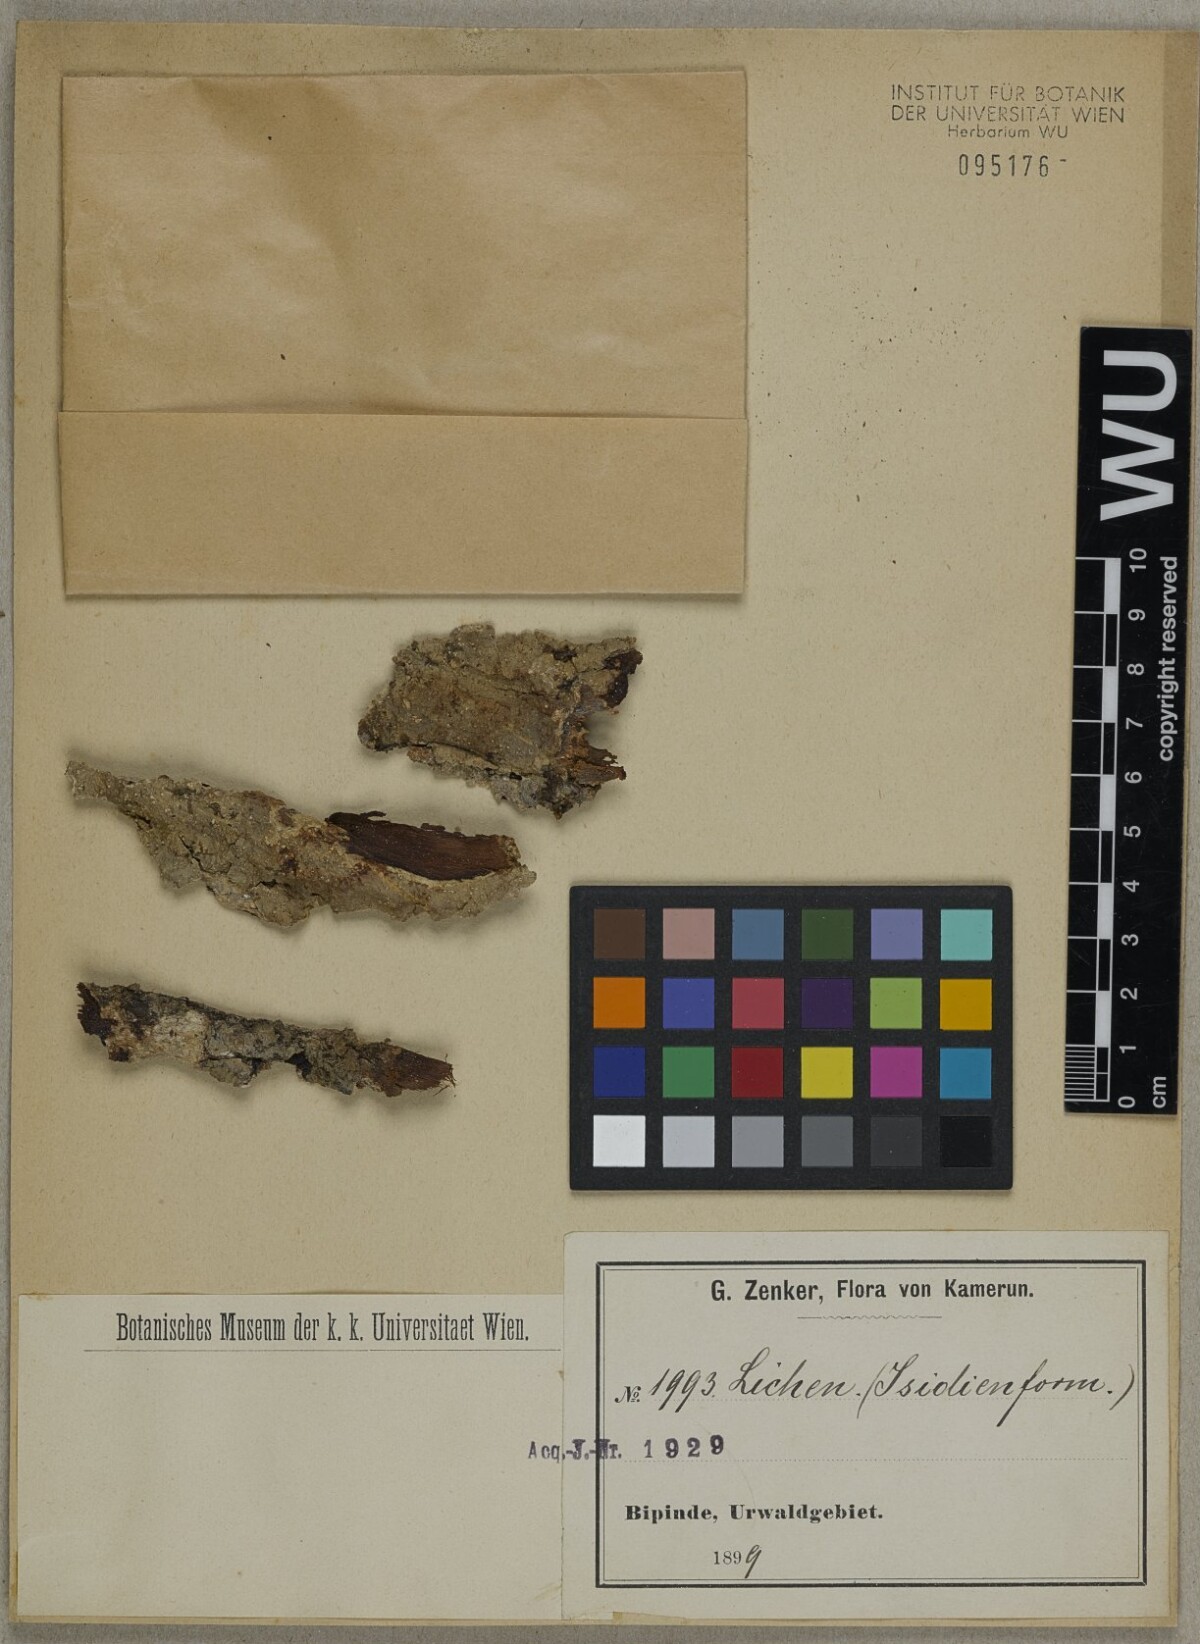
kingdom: Fungi
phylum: Ascomycota
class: Lecanoromycetes
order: Lecanorales
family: Parmeliaceae
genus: Lichen
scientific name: Lichen
